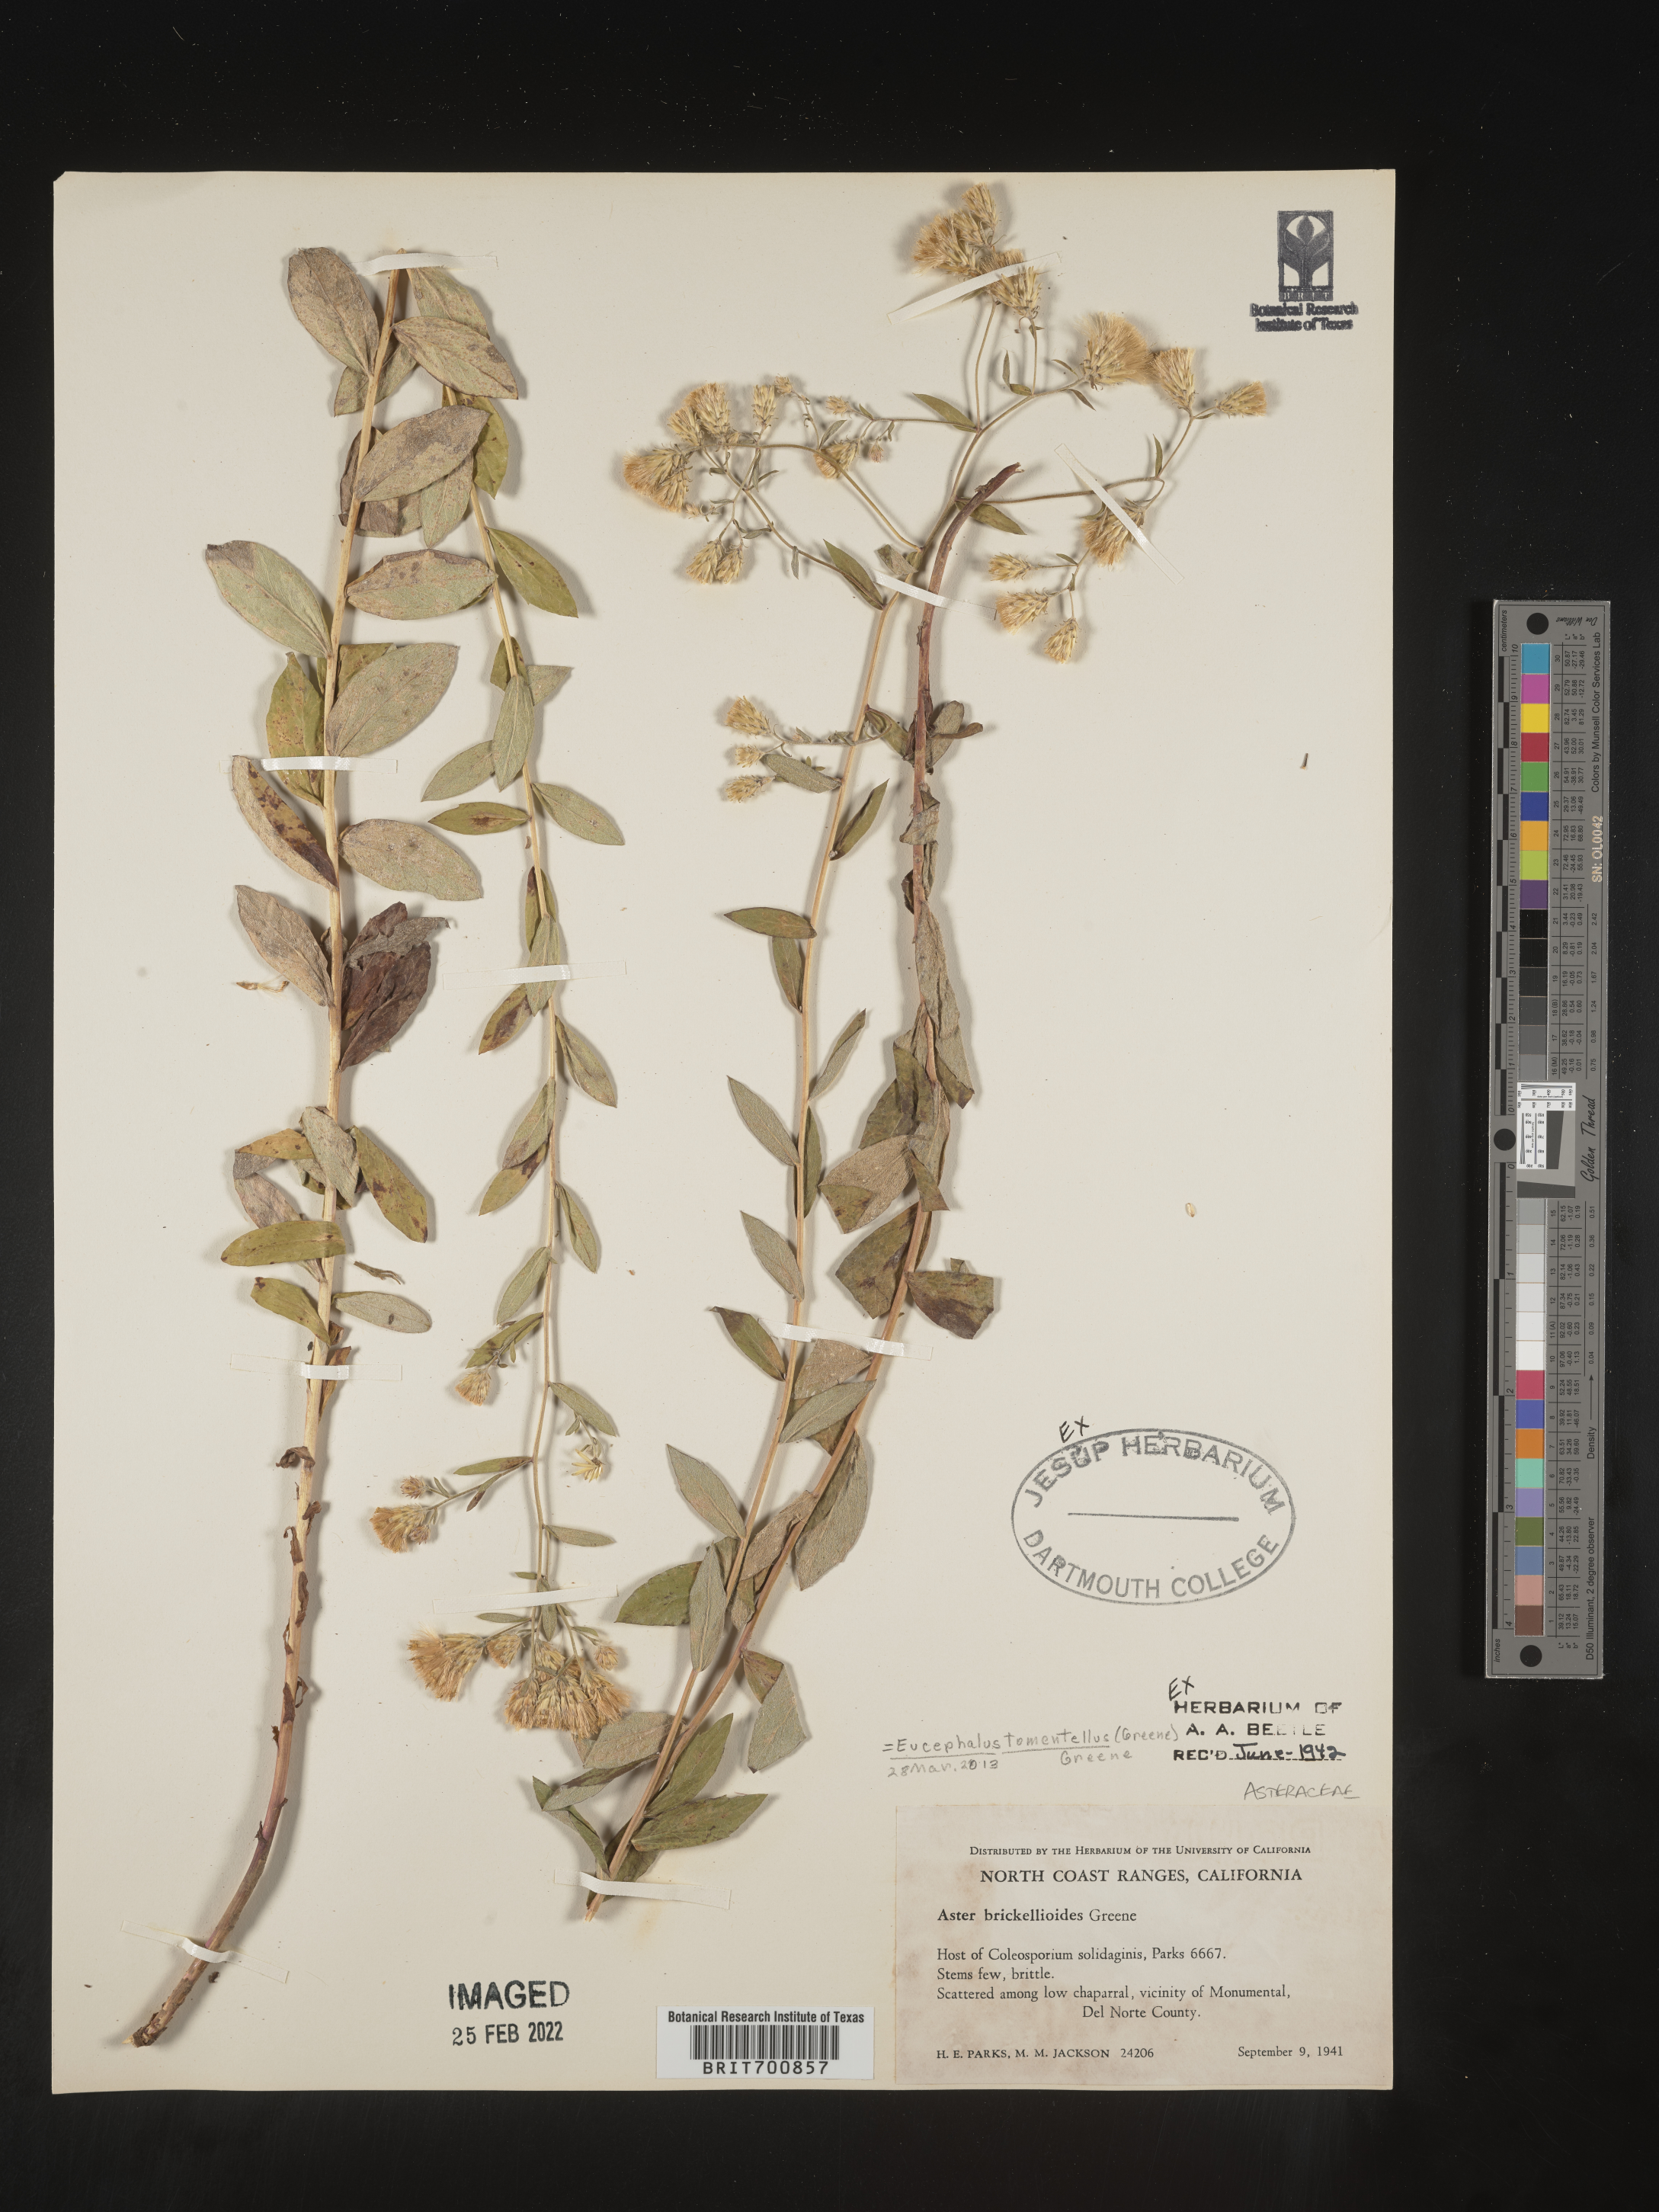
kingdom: Plantae
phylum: Tracheophyta
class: Magnoliopsida
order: Asterales
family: Asteraceae
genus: Eucephalus
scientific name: Eucephalus
